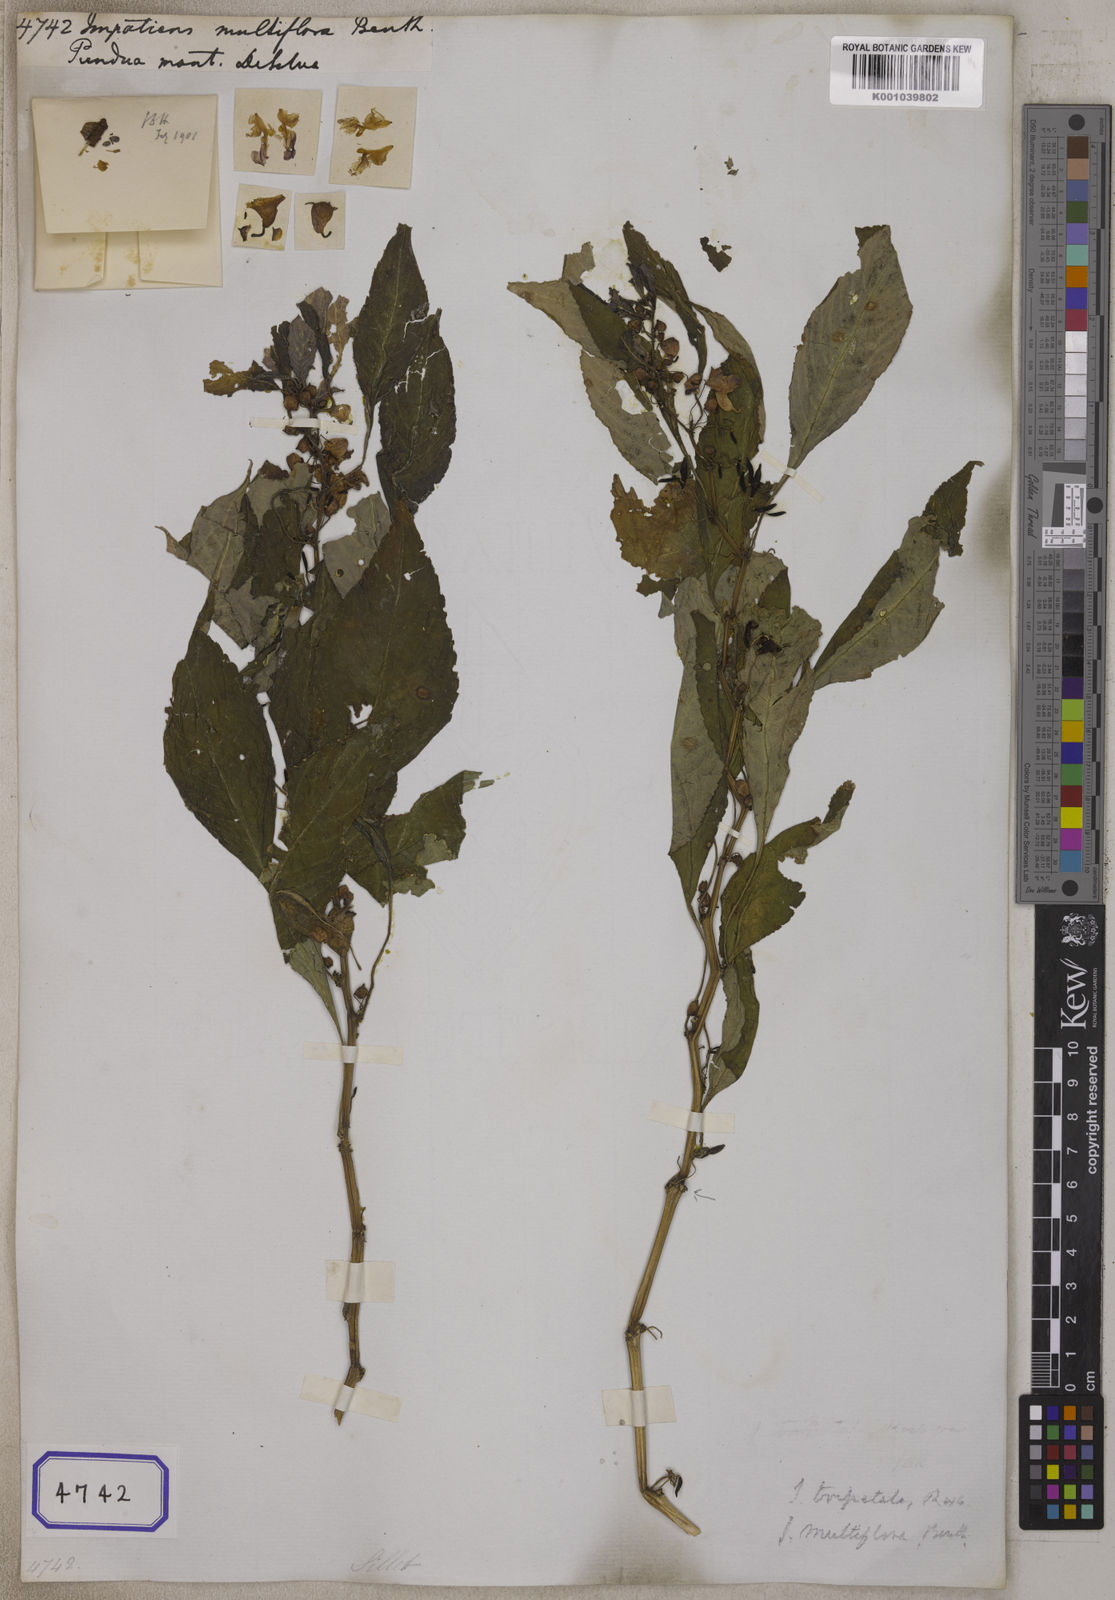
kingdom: Plantae
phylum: Tracheophyta
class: Magnoliopsida
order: Ericales
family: Balsaminaceae
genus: Impatiens
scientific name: Impatiens
